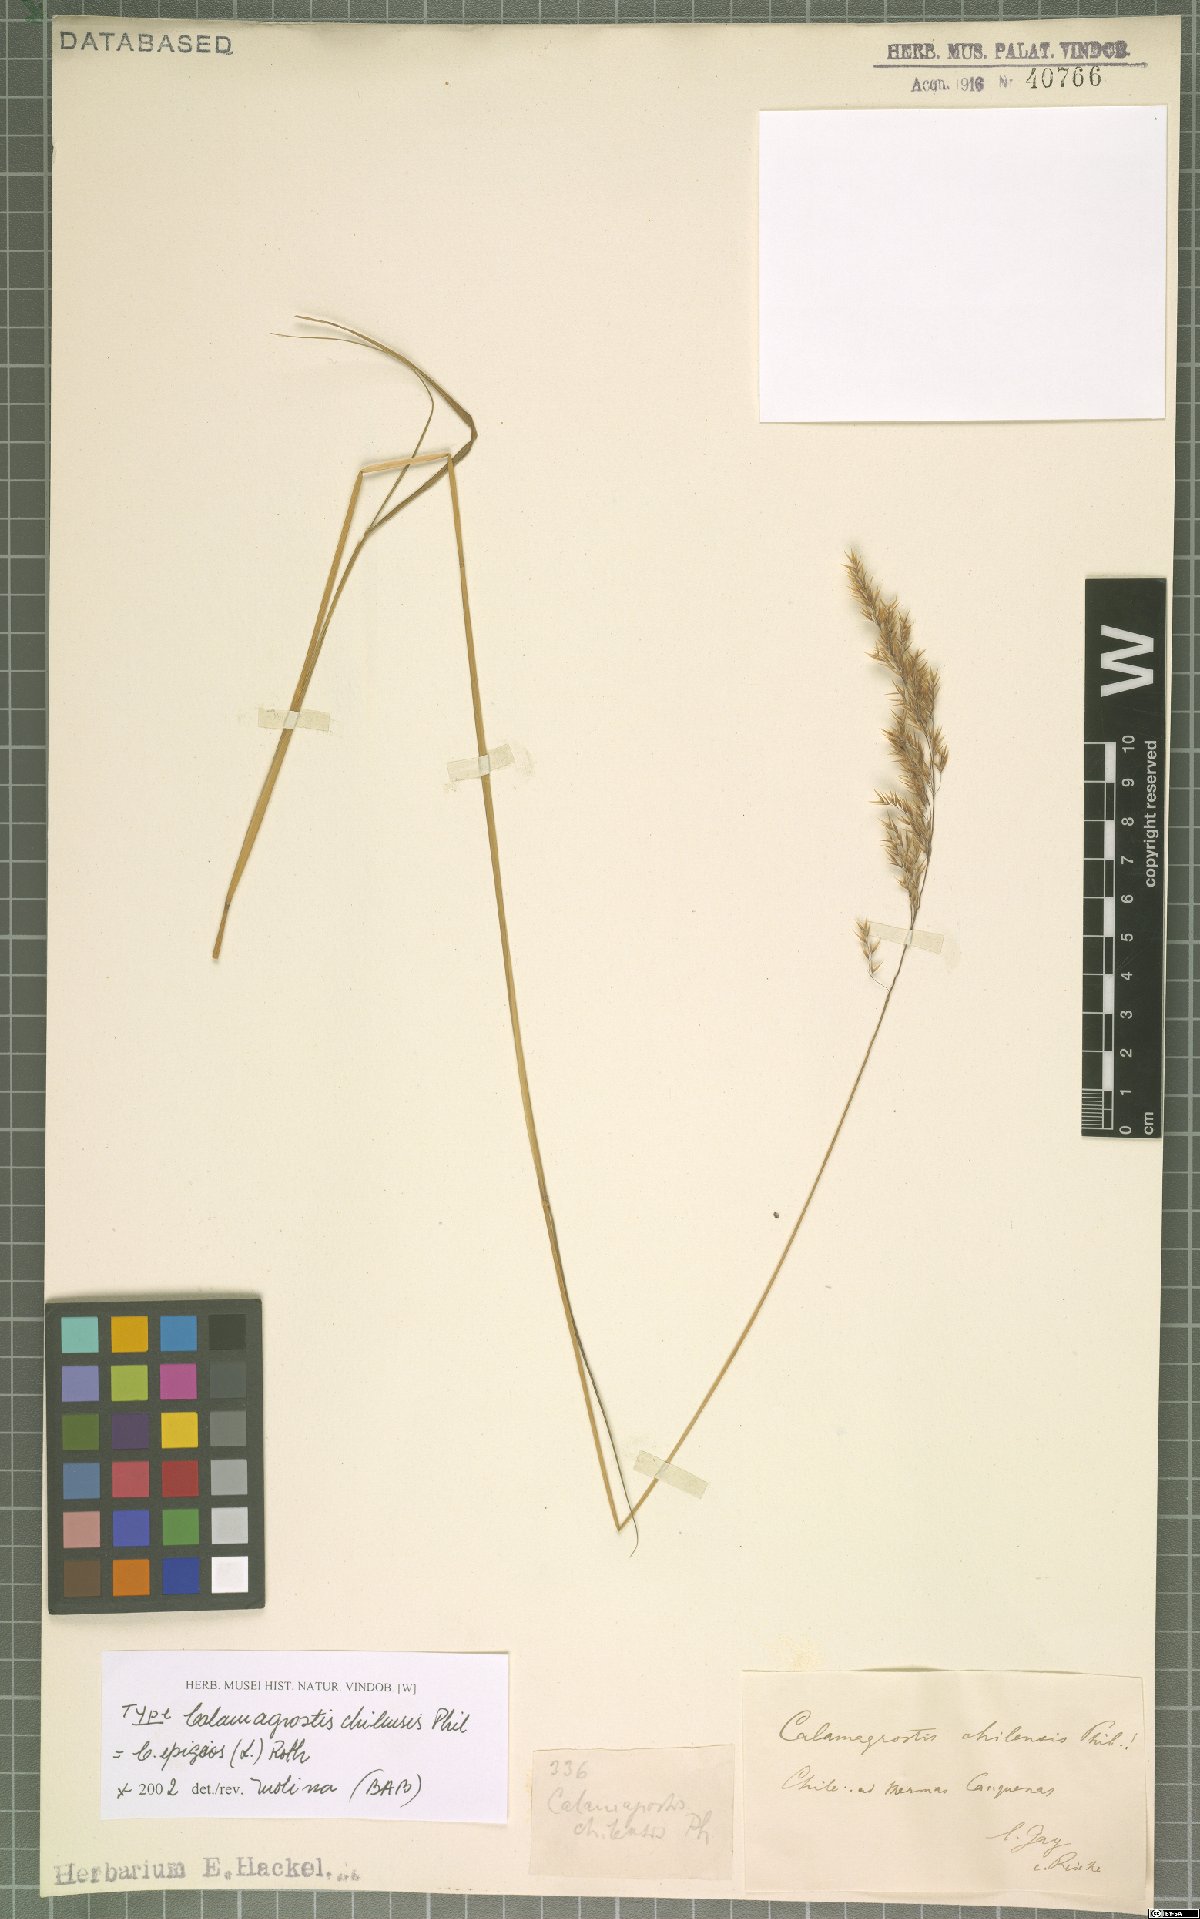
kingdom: Plantae
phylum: Tracheophyta
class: Liliopsida
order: Poales
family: Poaceae
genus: Calamagrostis
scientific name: Calamagrostis epigejos
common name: Wood small-reed
